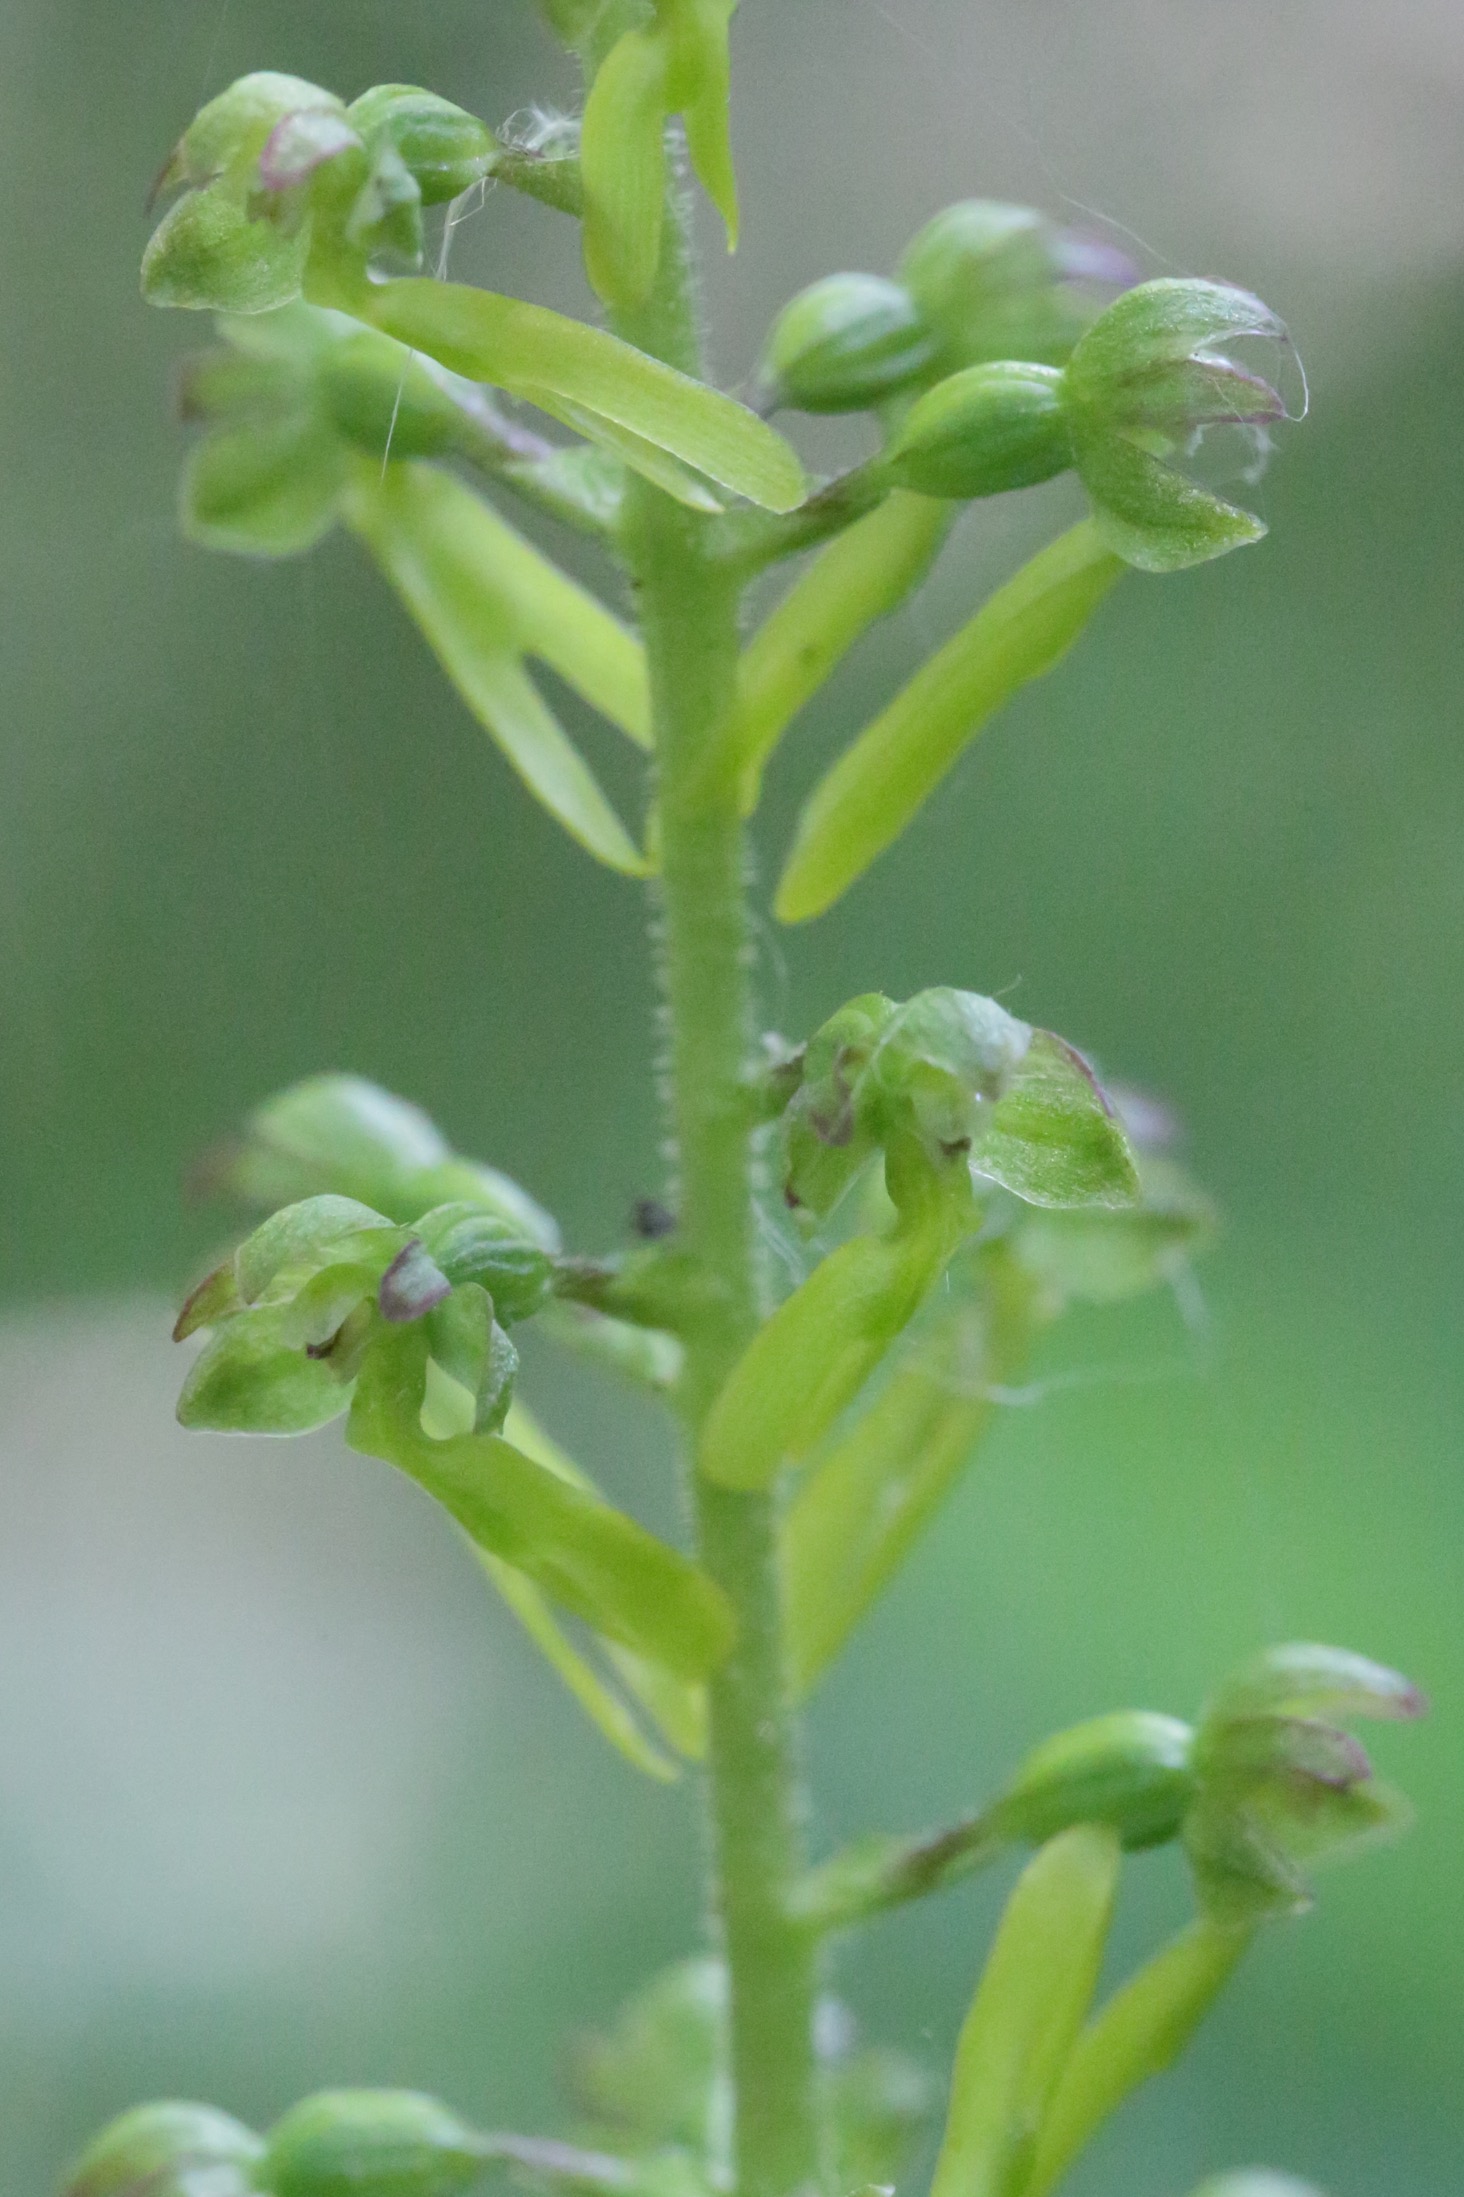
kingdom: Plantae
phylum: Tracheophyta
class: Liliopsida
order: Asparagales
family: Orchidaceae
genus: Neottia
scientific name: Neottia ovata
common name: Ægbladet fliglæbe
